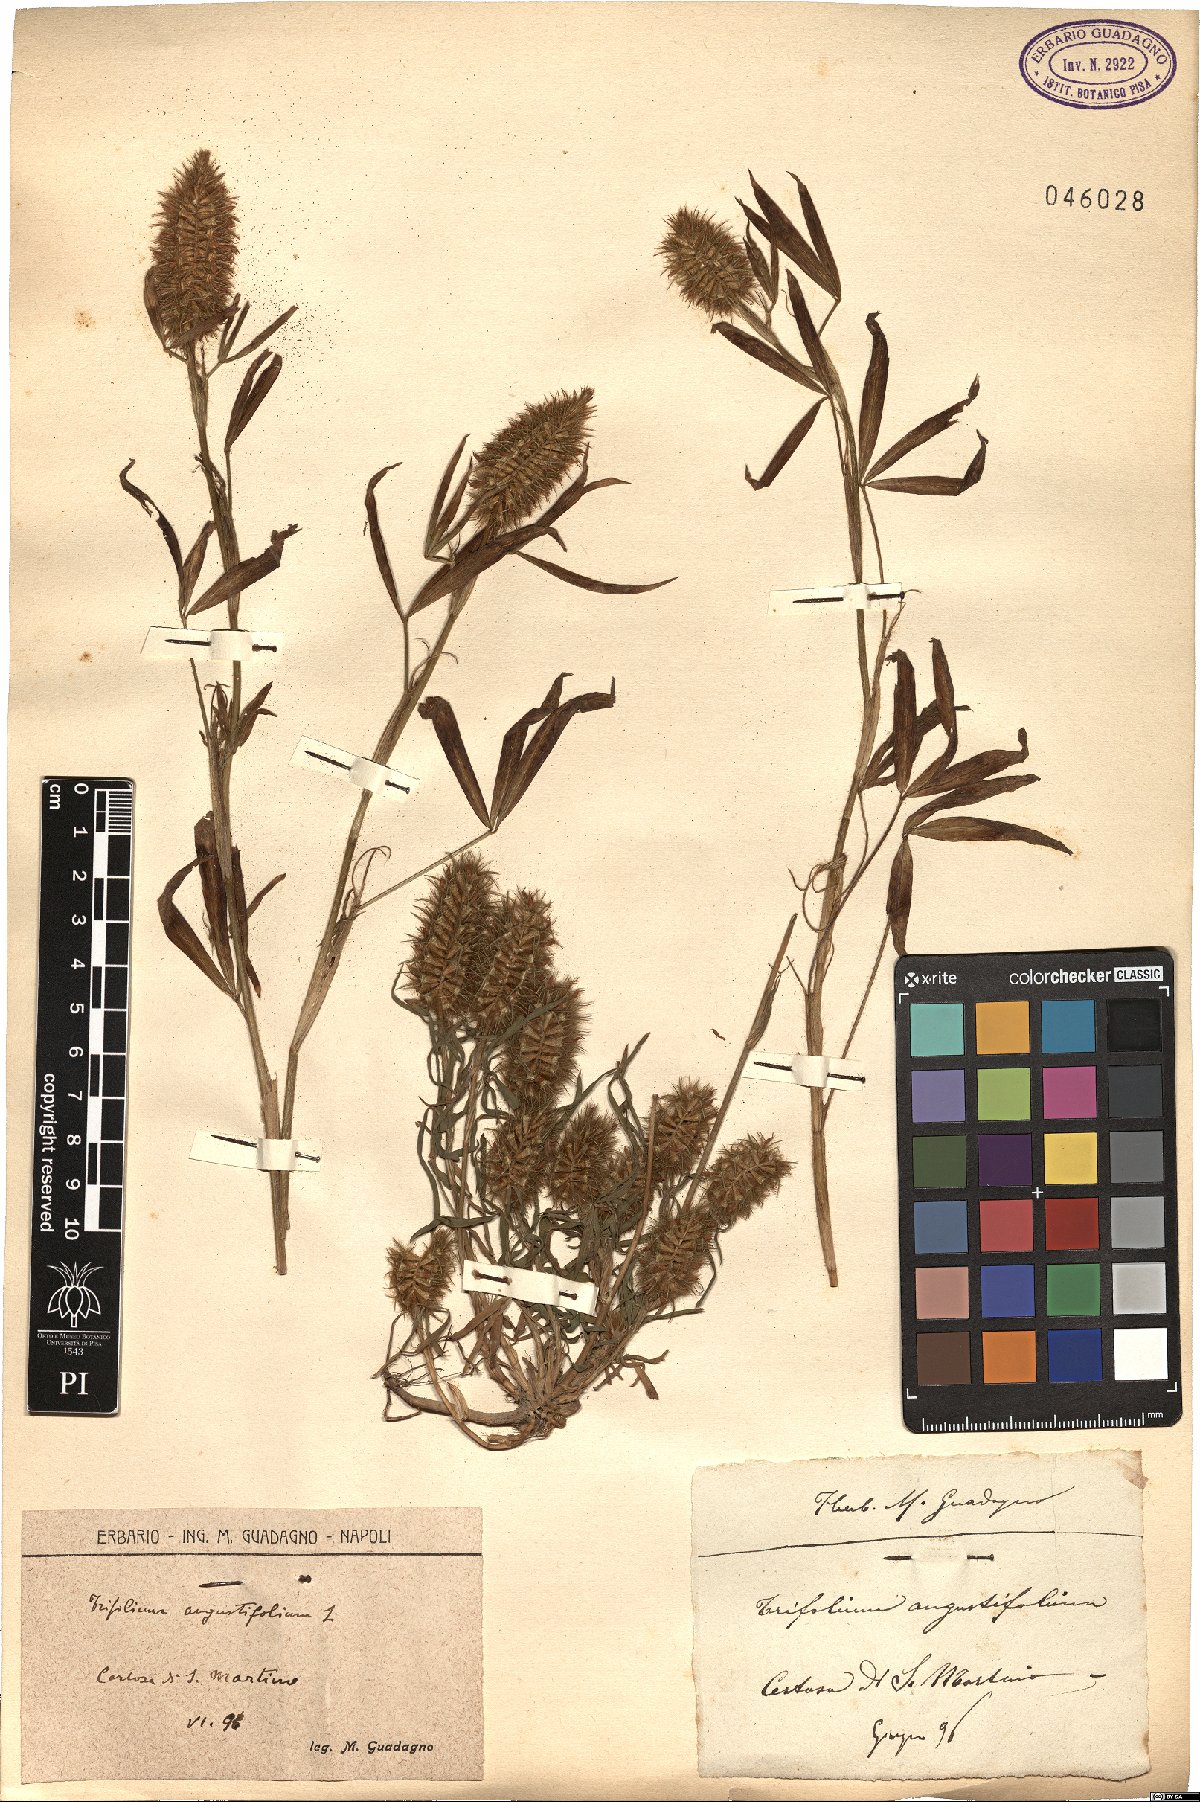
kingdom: Plantae
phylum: Tracheophyta
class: Magnoliopsida
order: Fabales
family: Fabaceae
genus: Trifolium
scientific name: Trifolium angustifolium
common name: Narrow clover
